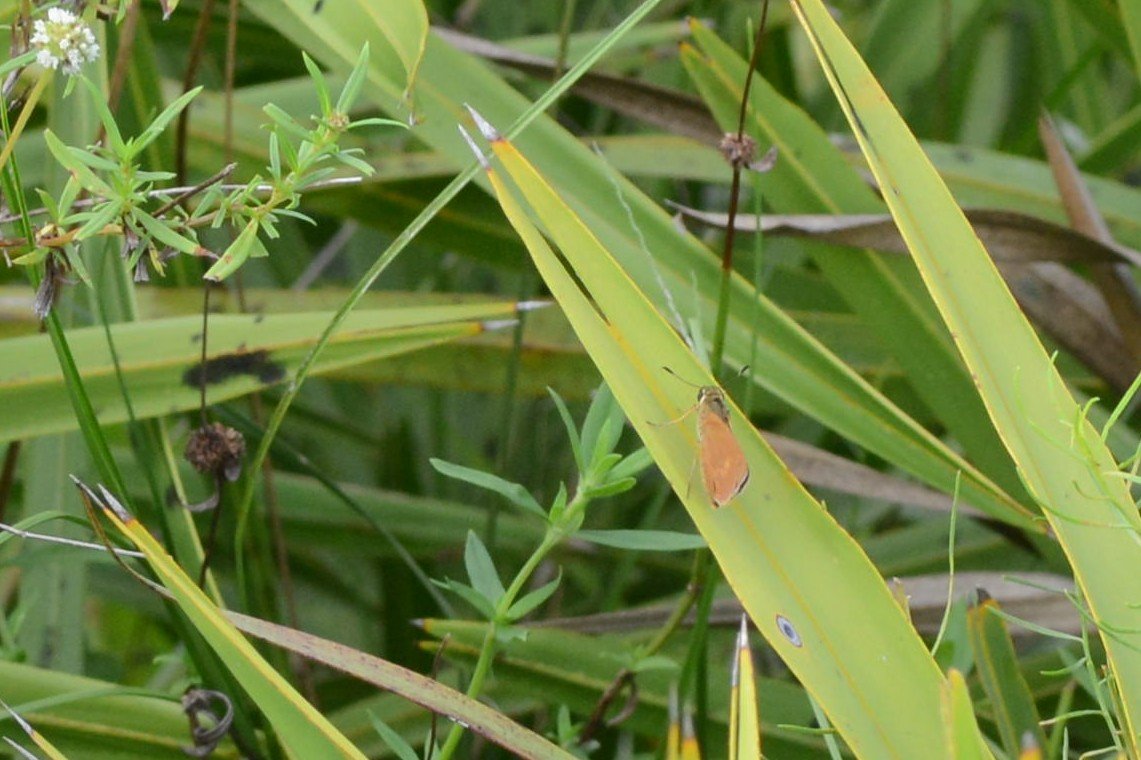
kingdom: Animalia
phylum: Arthropoda
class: Insecta
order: Lepidoptera
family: Hesperiidae
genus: Wallengrenia
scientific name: Wallengrenia otho
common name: Southern Broken-Dash
